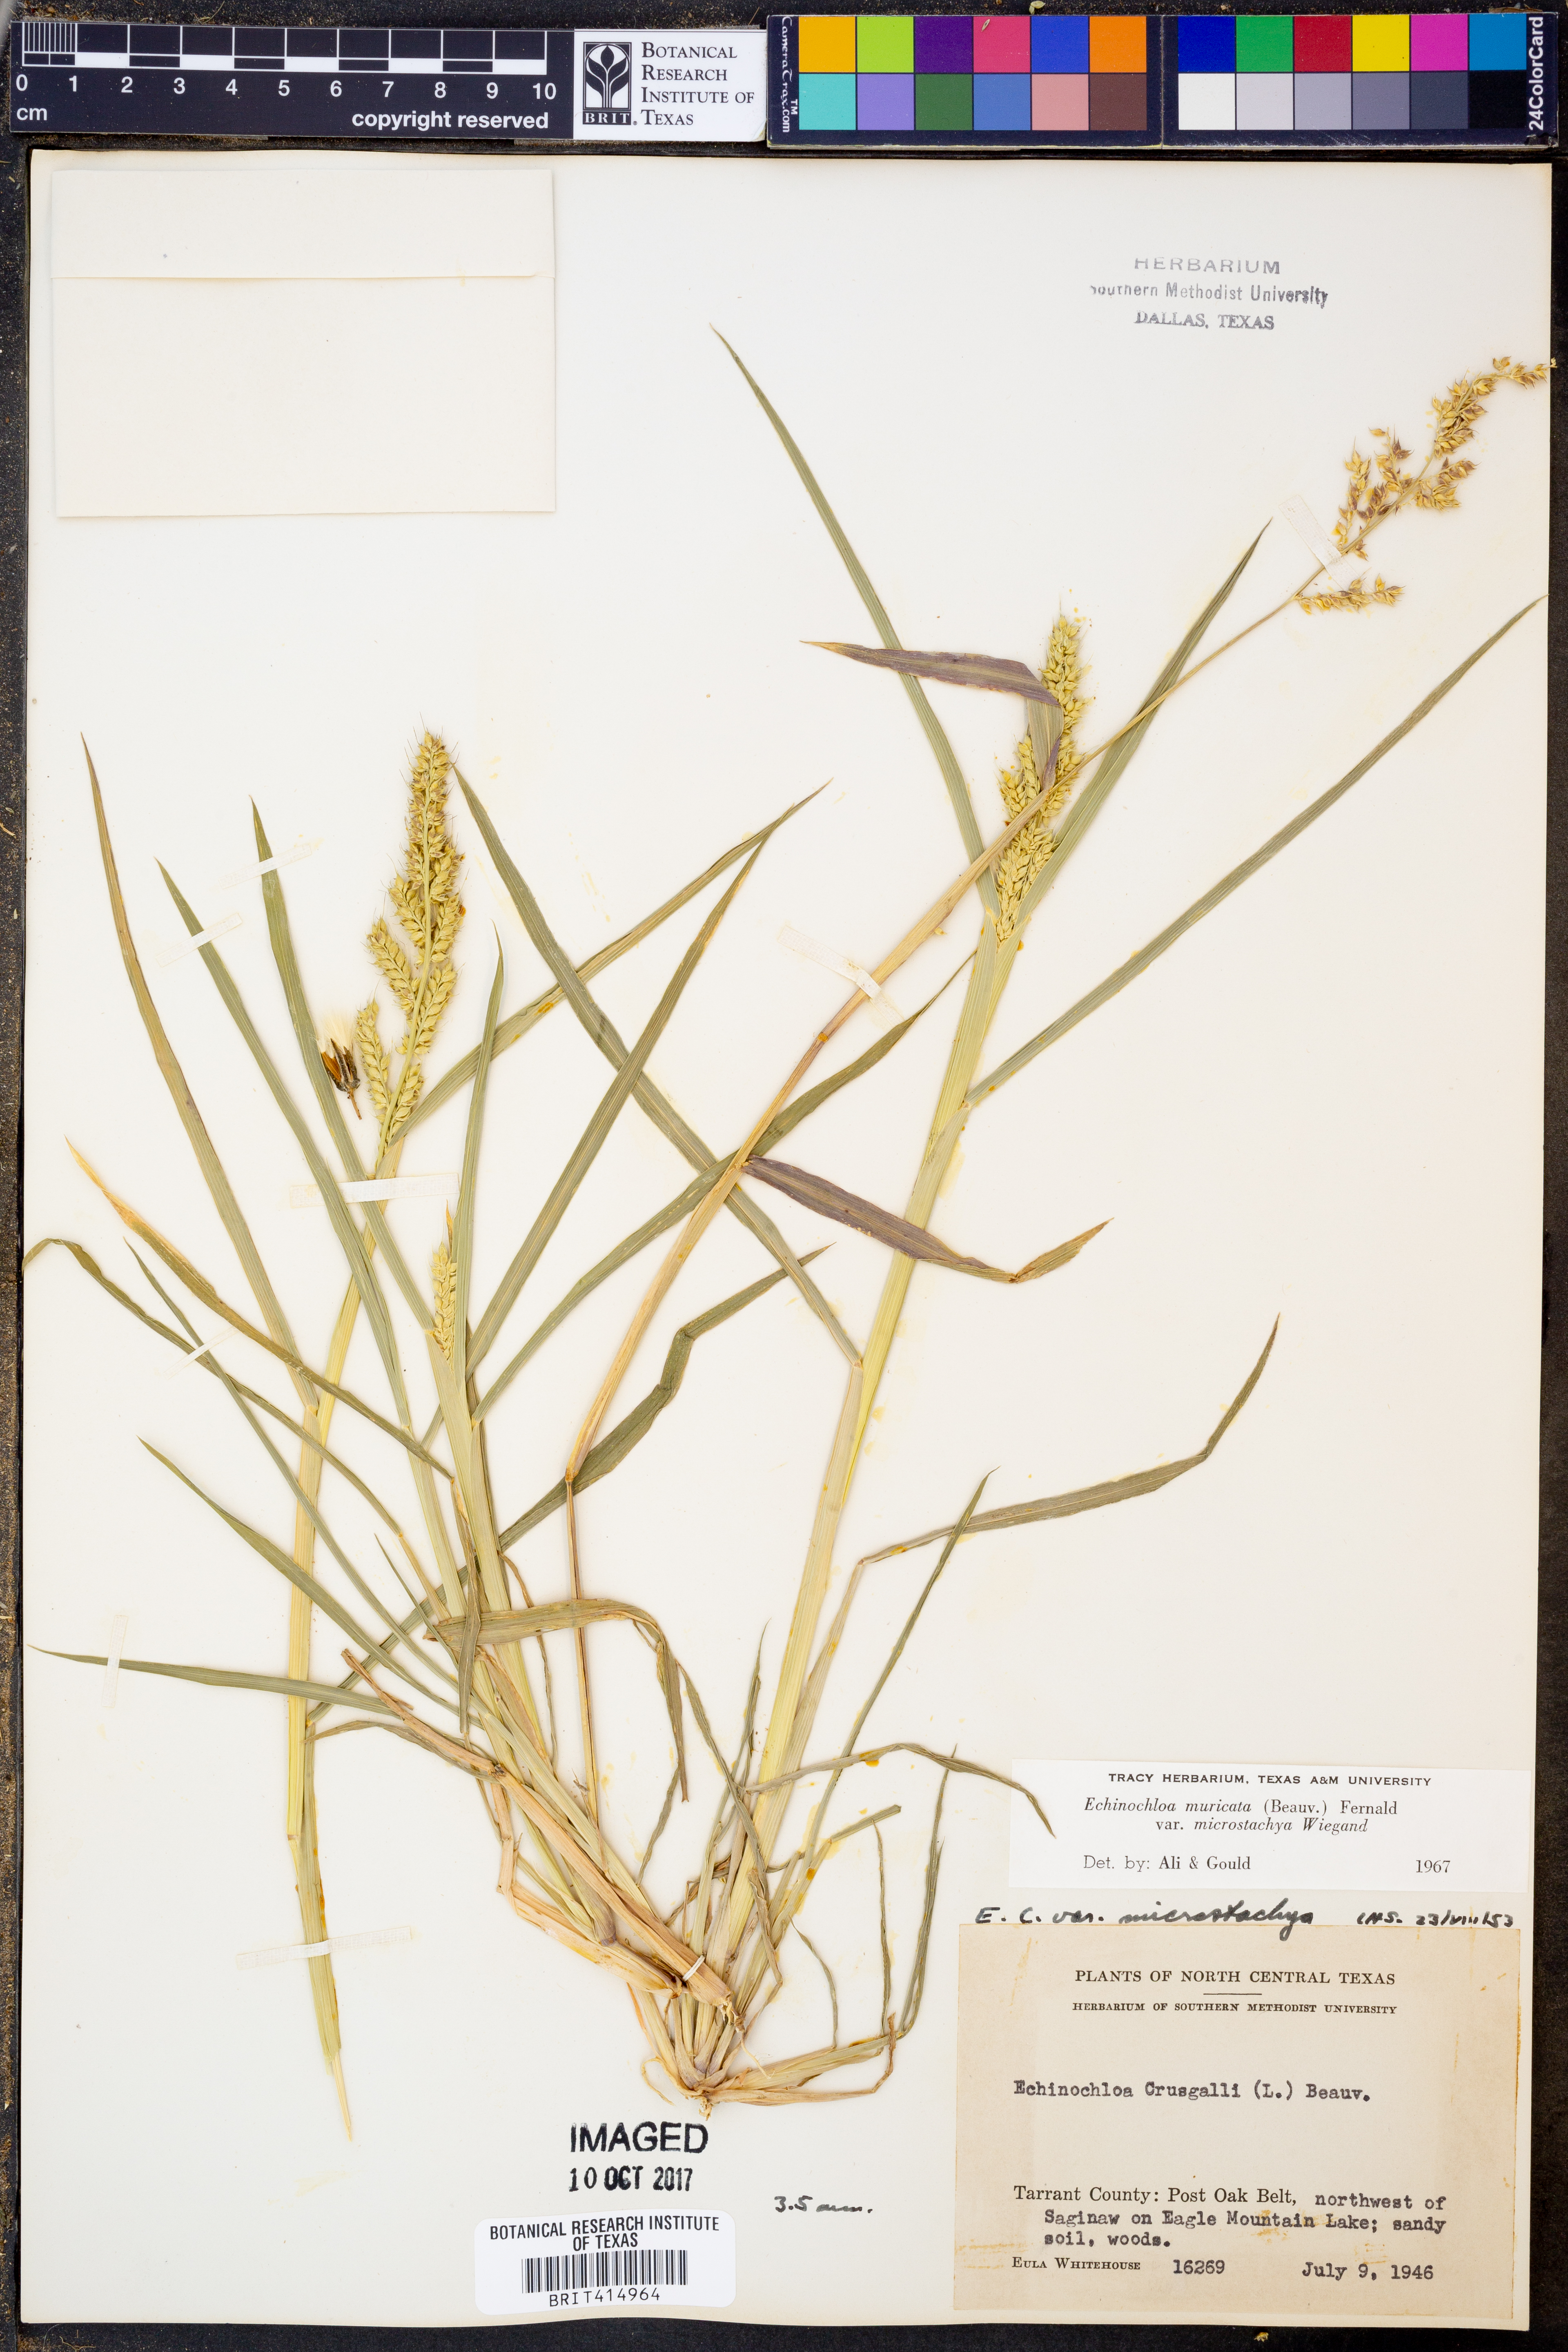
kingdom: Plantae
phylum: Tracheophyta
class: Liliopsida
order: Poales
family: Poaceae
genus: Echinochloa
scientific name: Echinochloa muricata
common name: American barnyard grass
